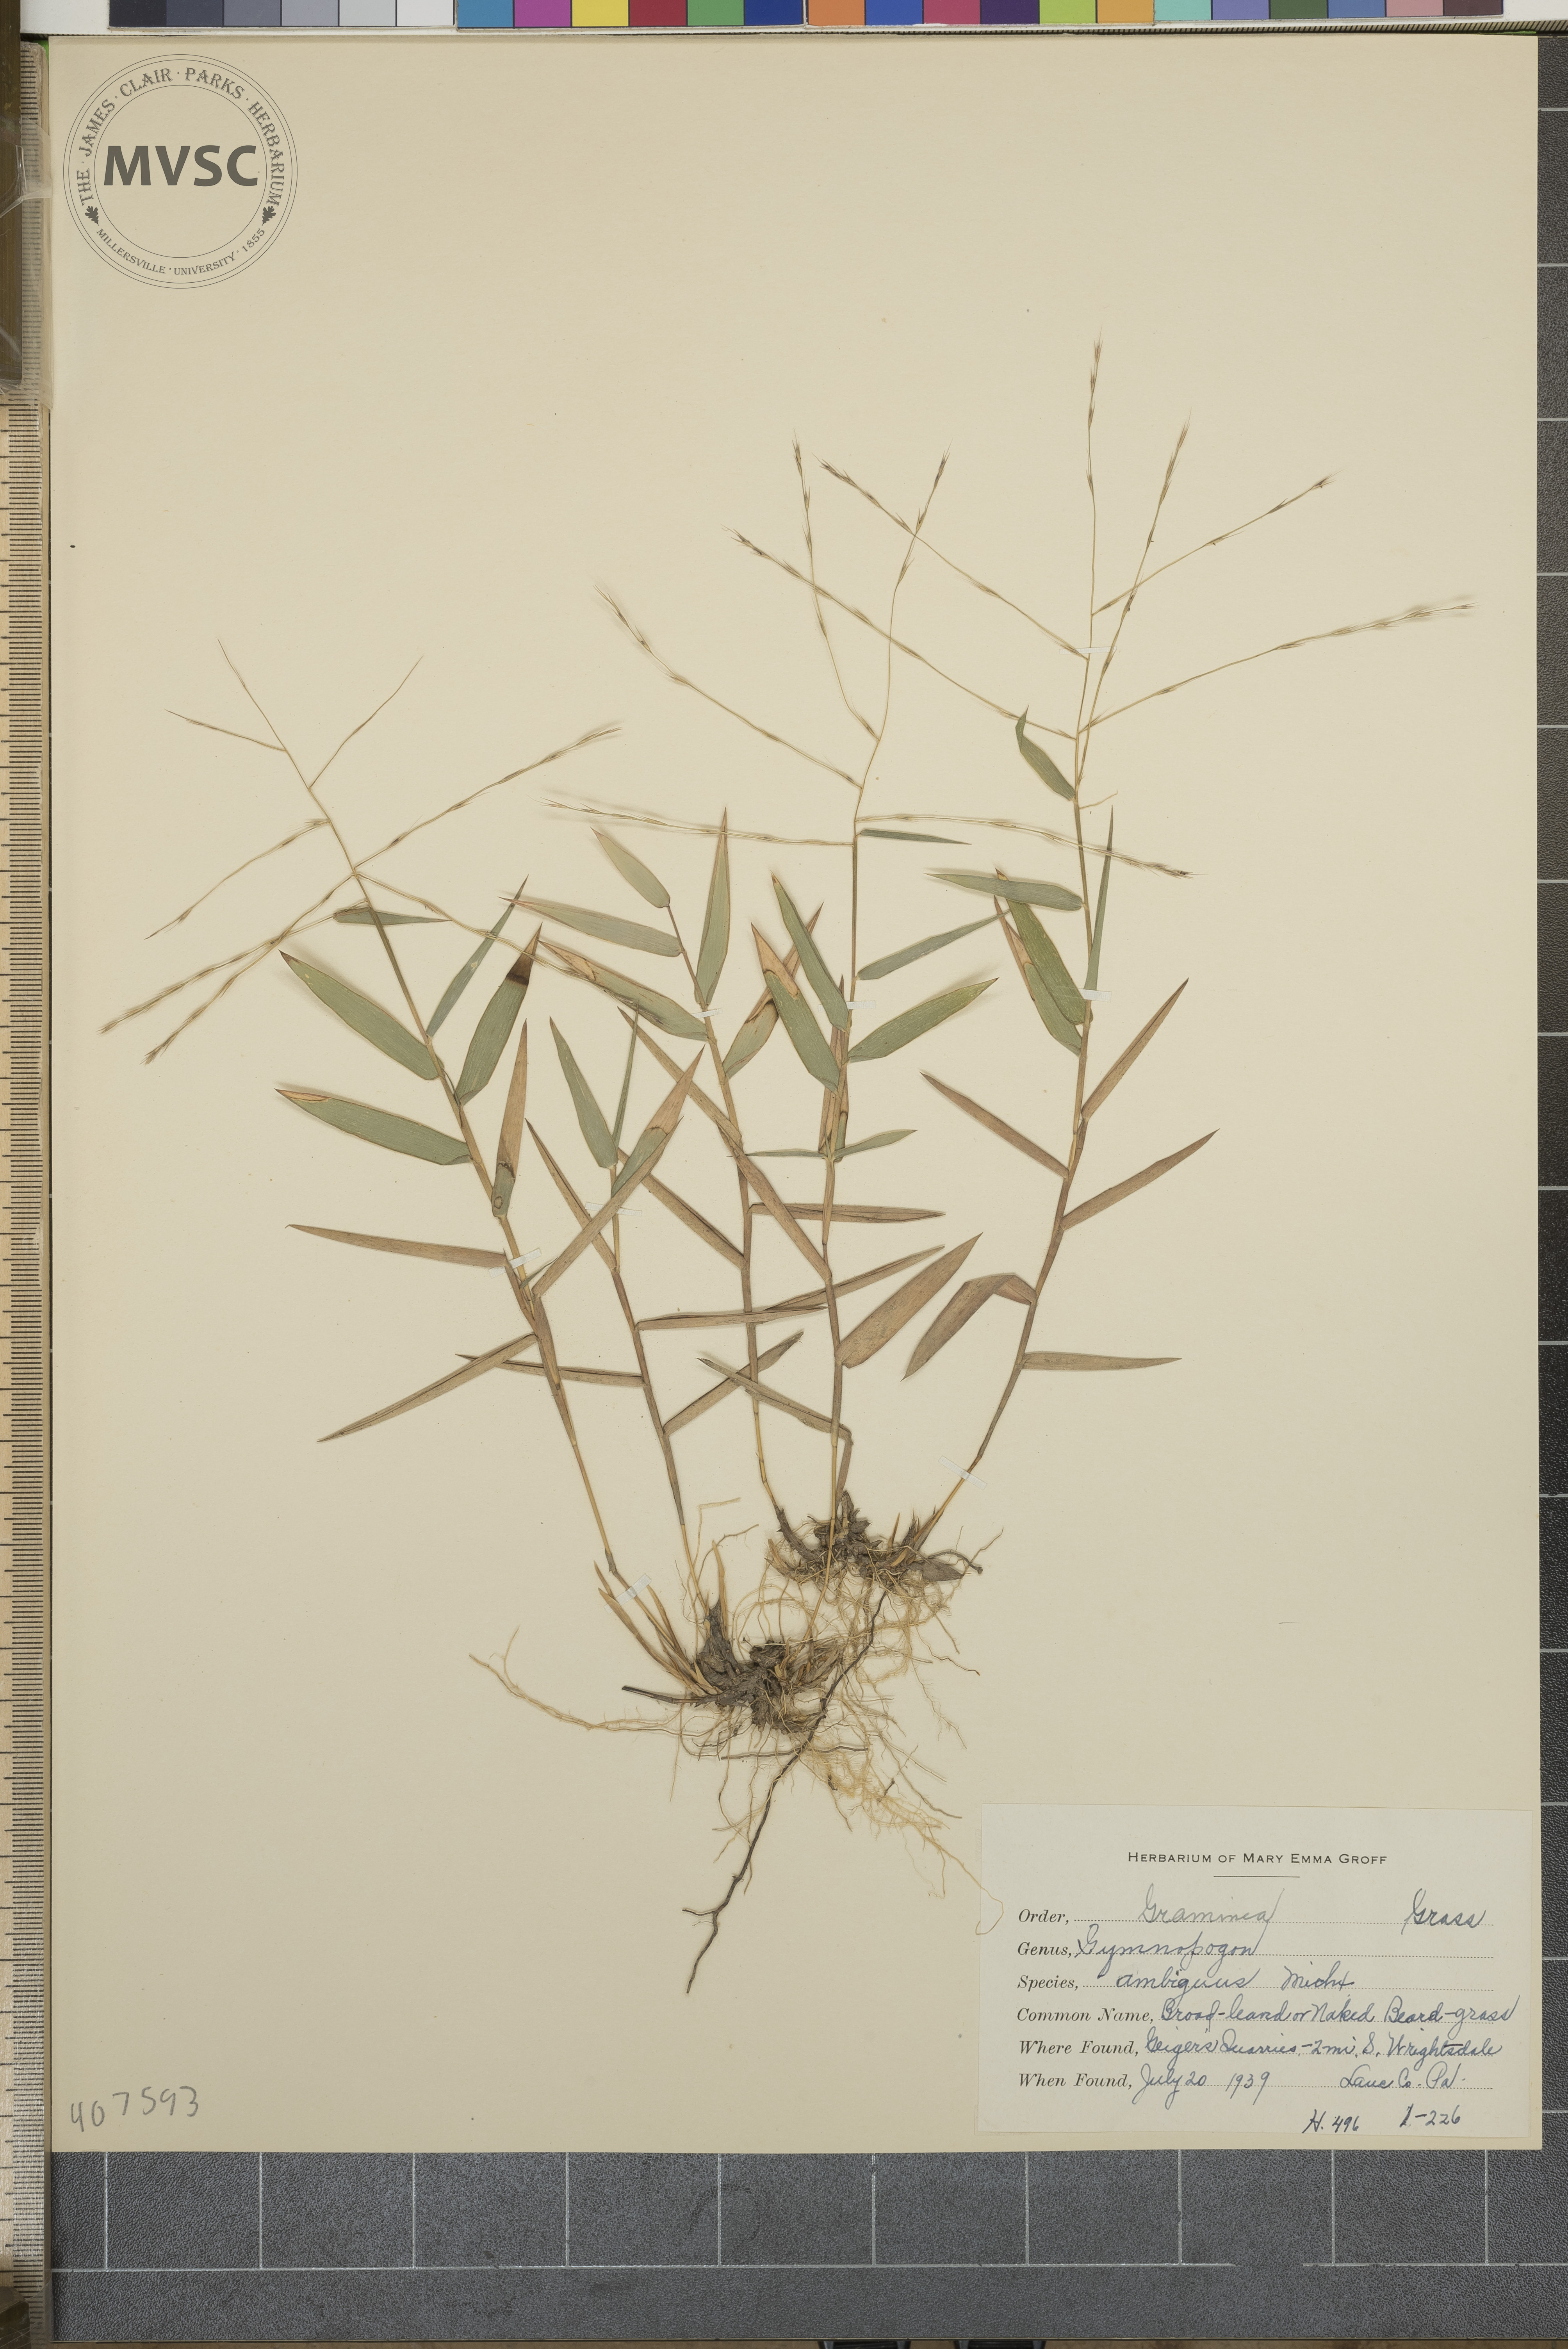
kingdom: Plantae
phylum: Tracheophyta
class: Liliopsida
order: Poales
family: Poaceae
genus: Gymnopogon
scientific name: Gymnopogon ambiguus
